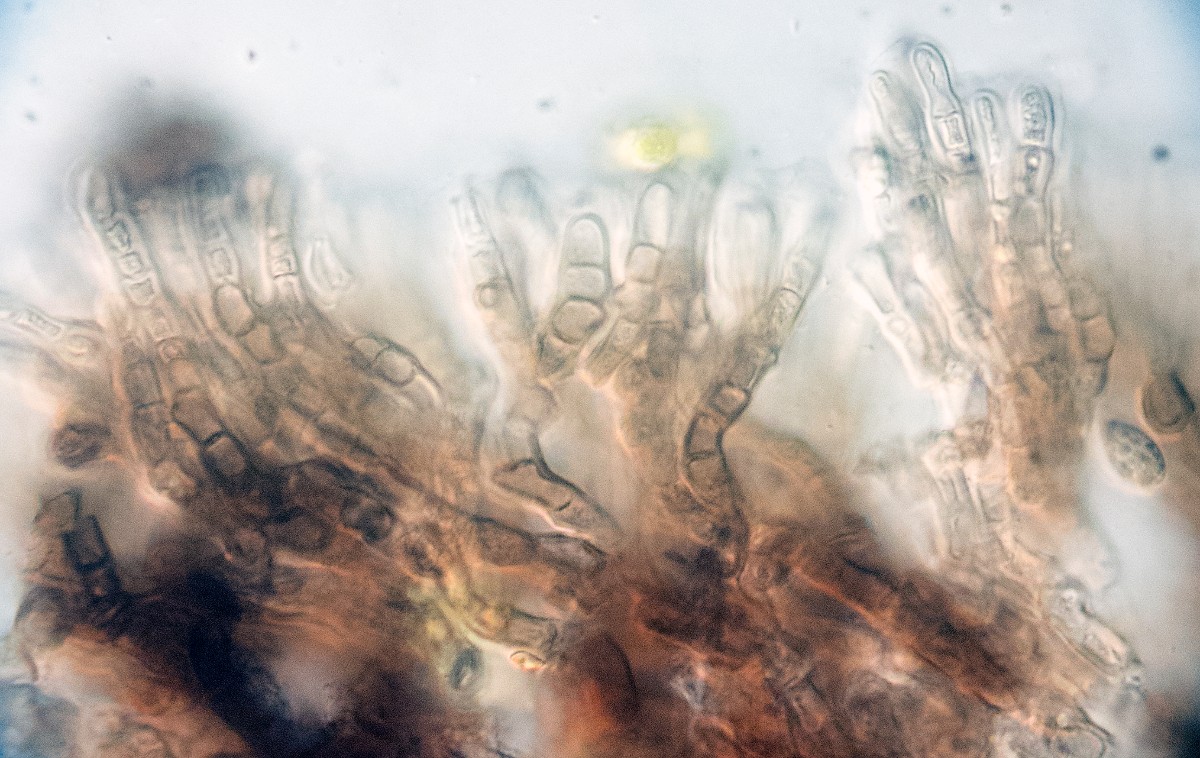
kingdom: Fungi
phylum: Ascomycota
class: Leotiomycetes
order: Helotiales
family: Cenangiaceae
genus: Cenangium
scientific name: Cenangium ferruginosum
